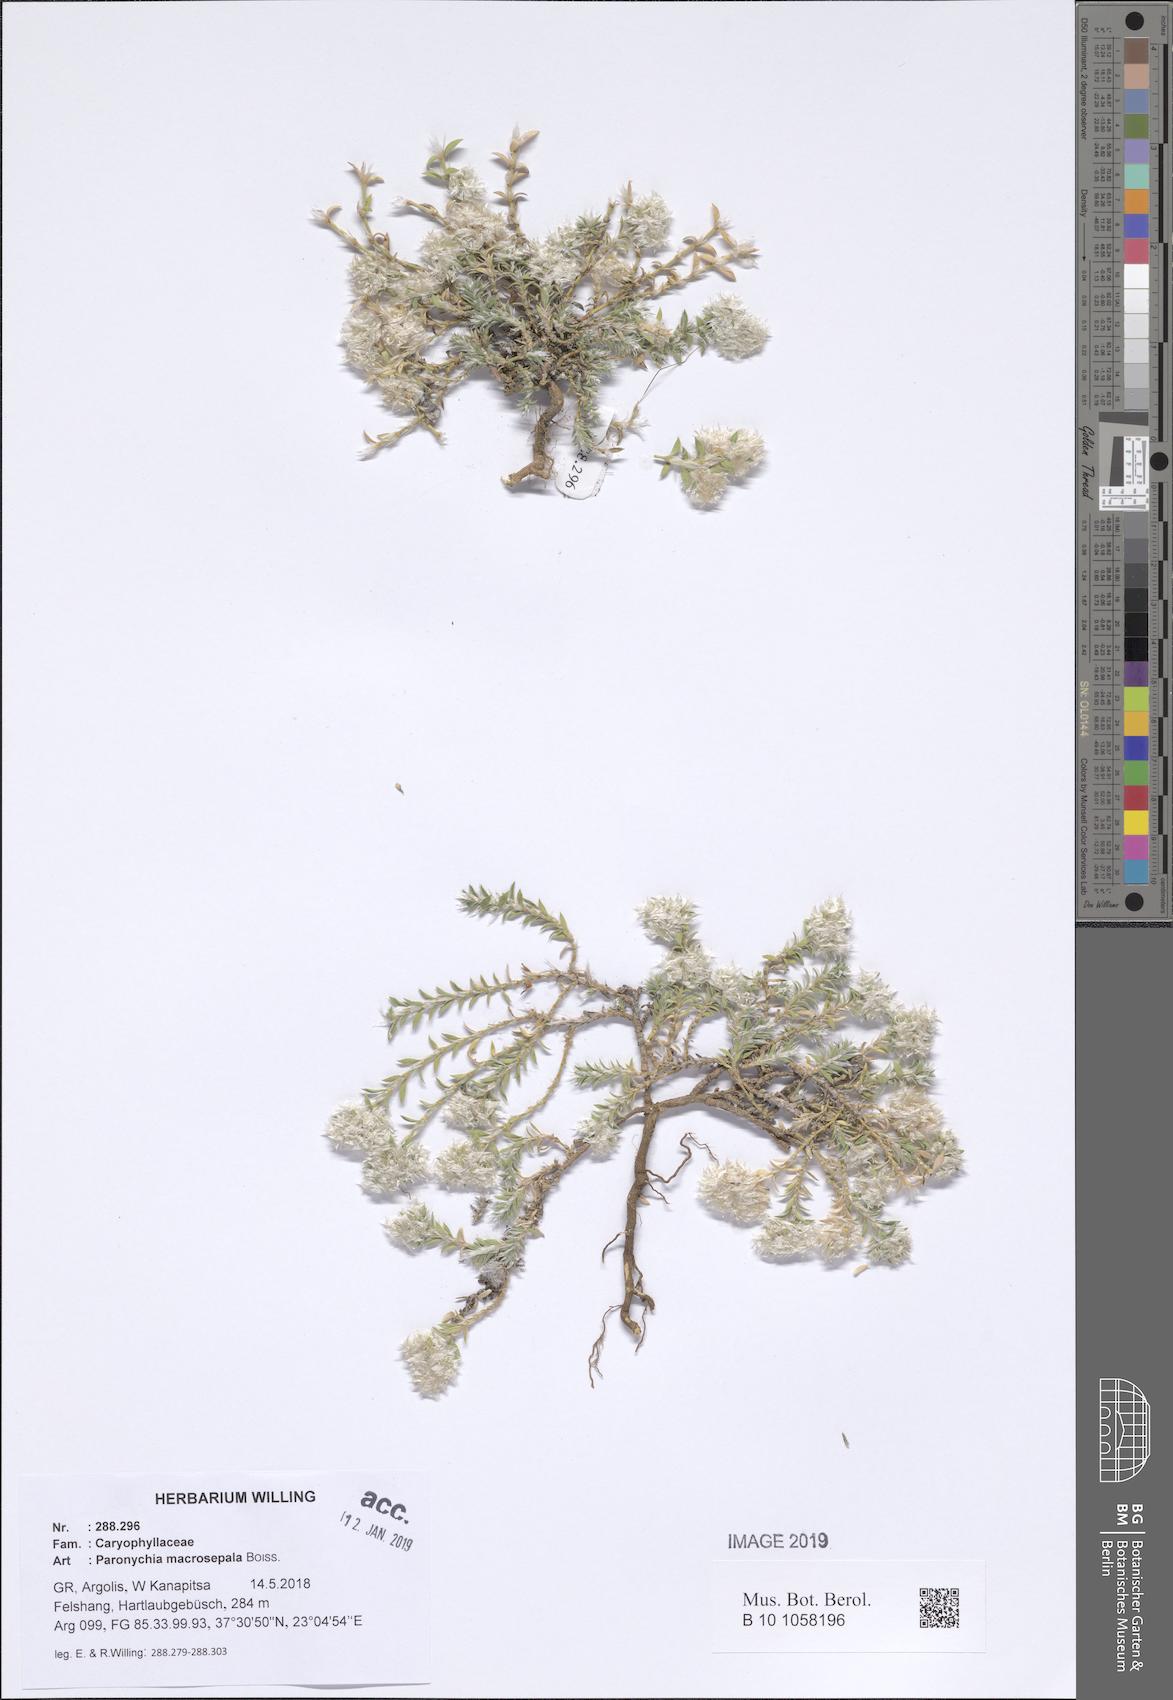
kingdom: Plantae
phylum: Tracheophyta
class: Magnoliopsida
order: Caryophyllales
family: Caryophyllaceae
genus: Paronychia
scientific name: Paronychia macrosepala
